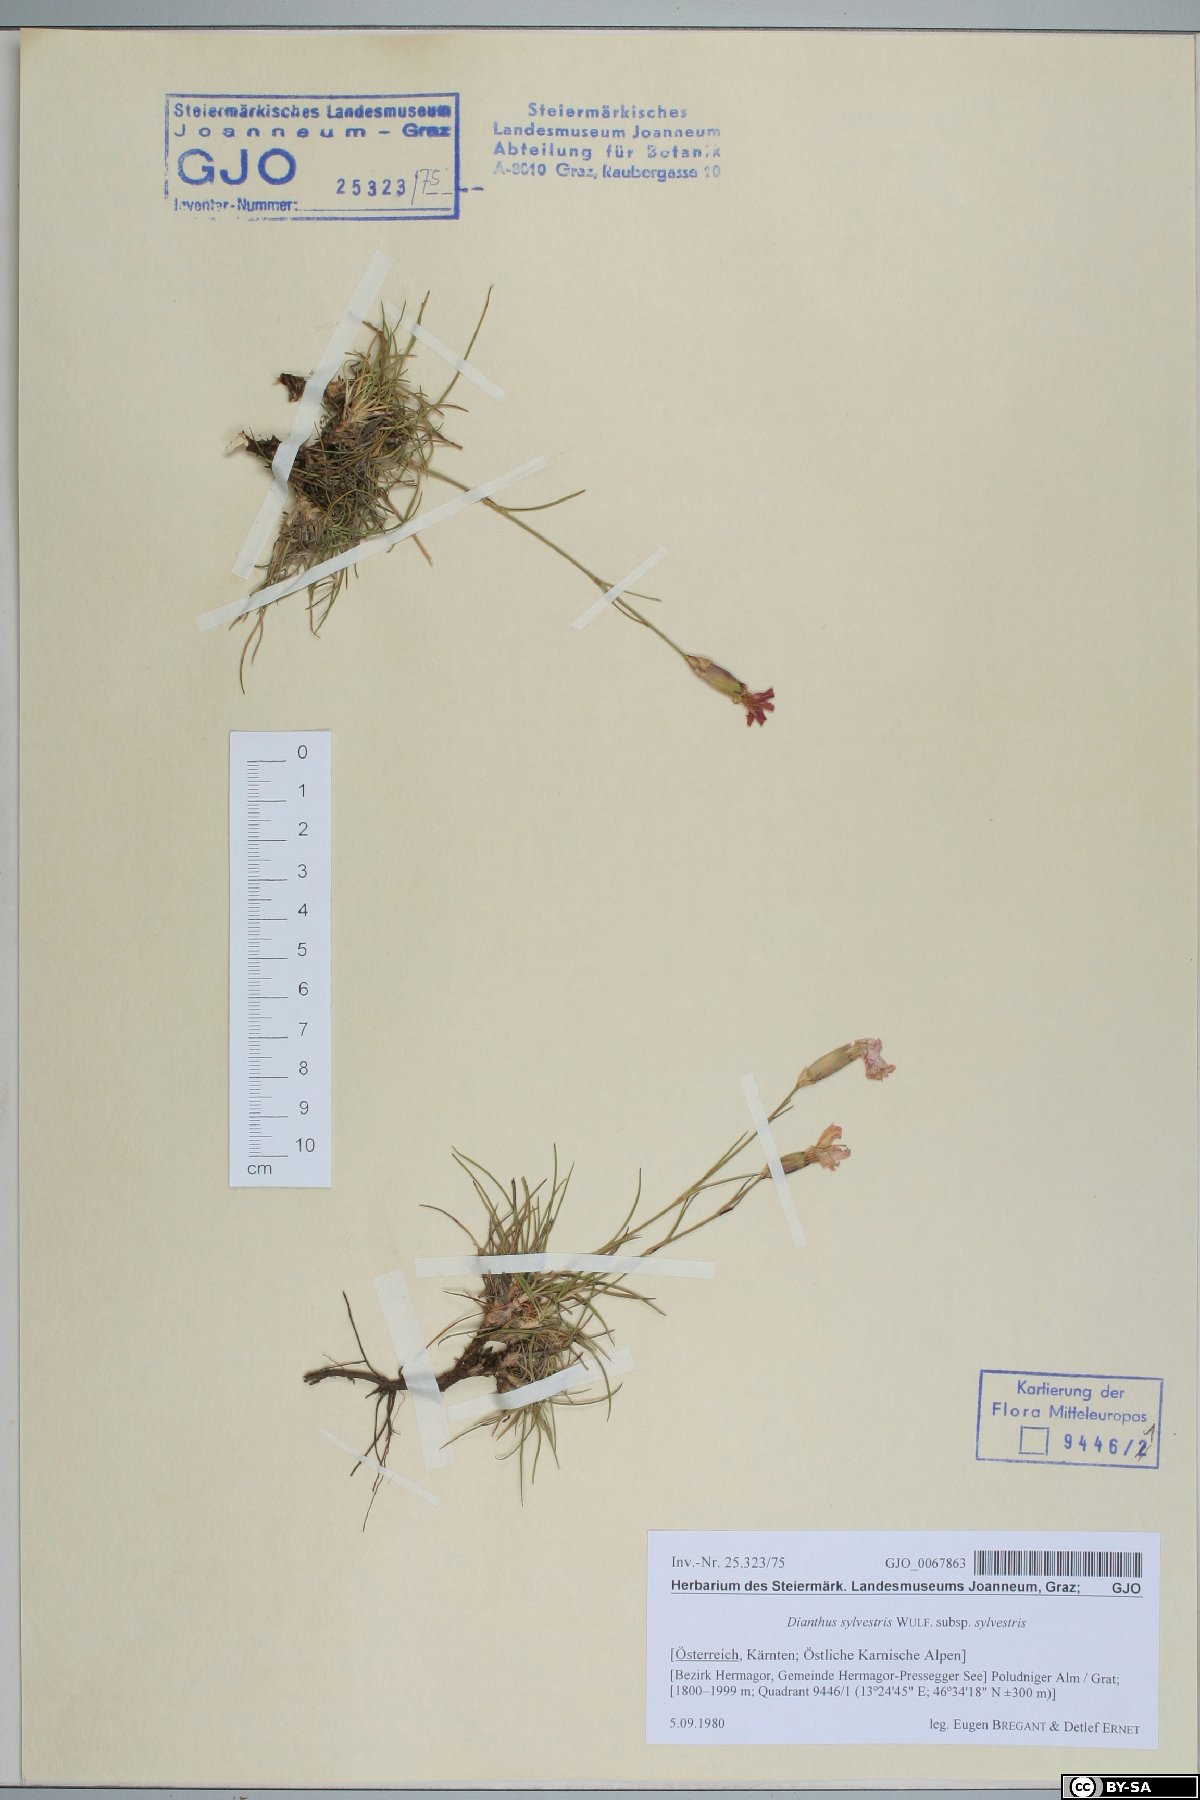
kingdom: Plantae
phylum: Tracheophyta
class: Magnoliopsida
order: Caryophyllales
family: Caryophyllaceae
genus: Dianthus
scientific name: Dianthus sylvestris
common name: Wood pink
